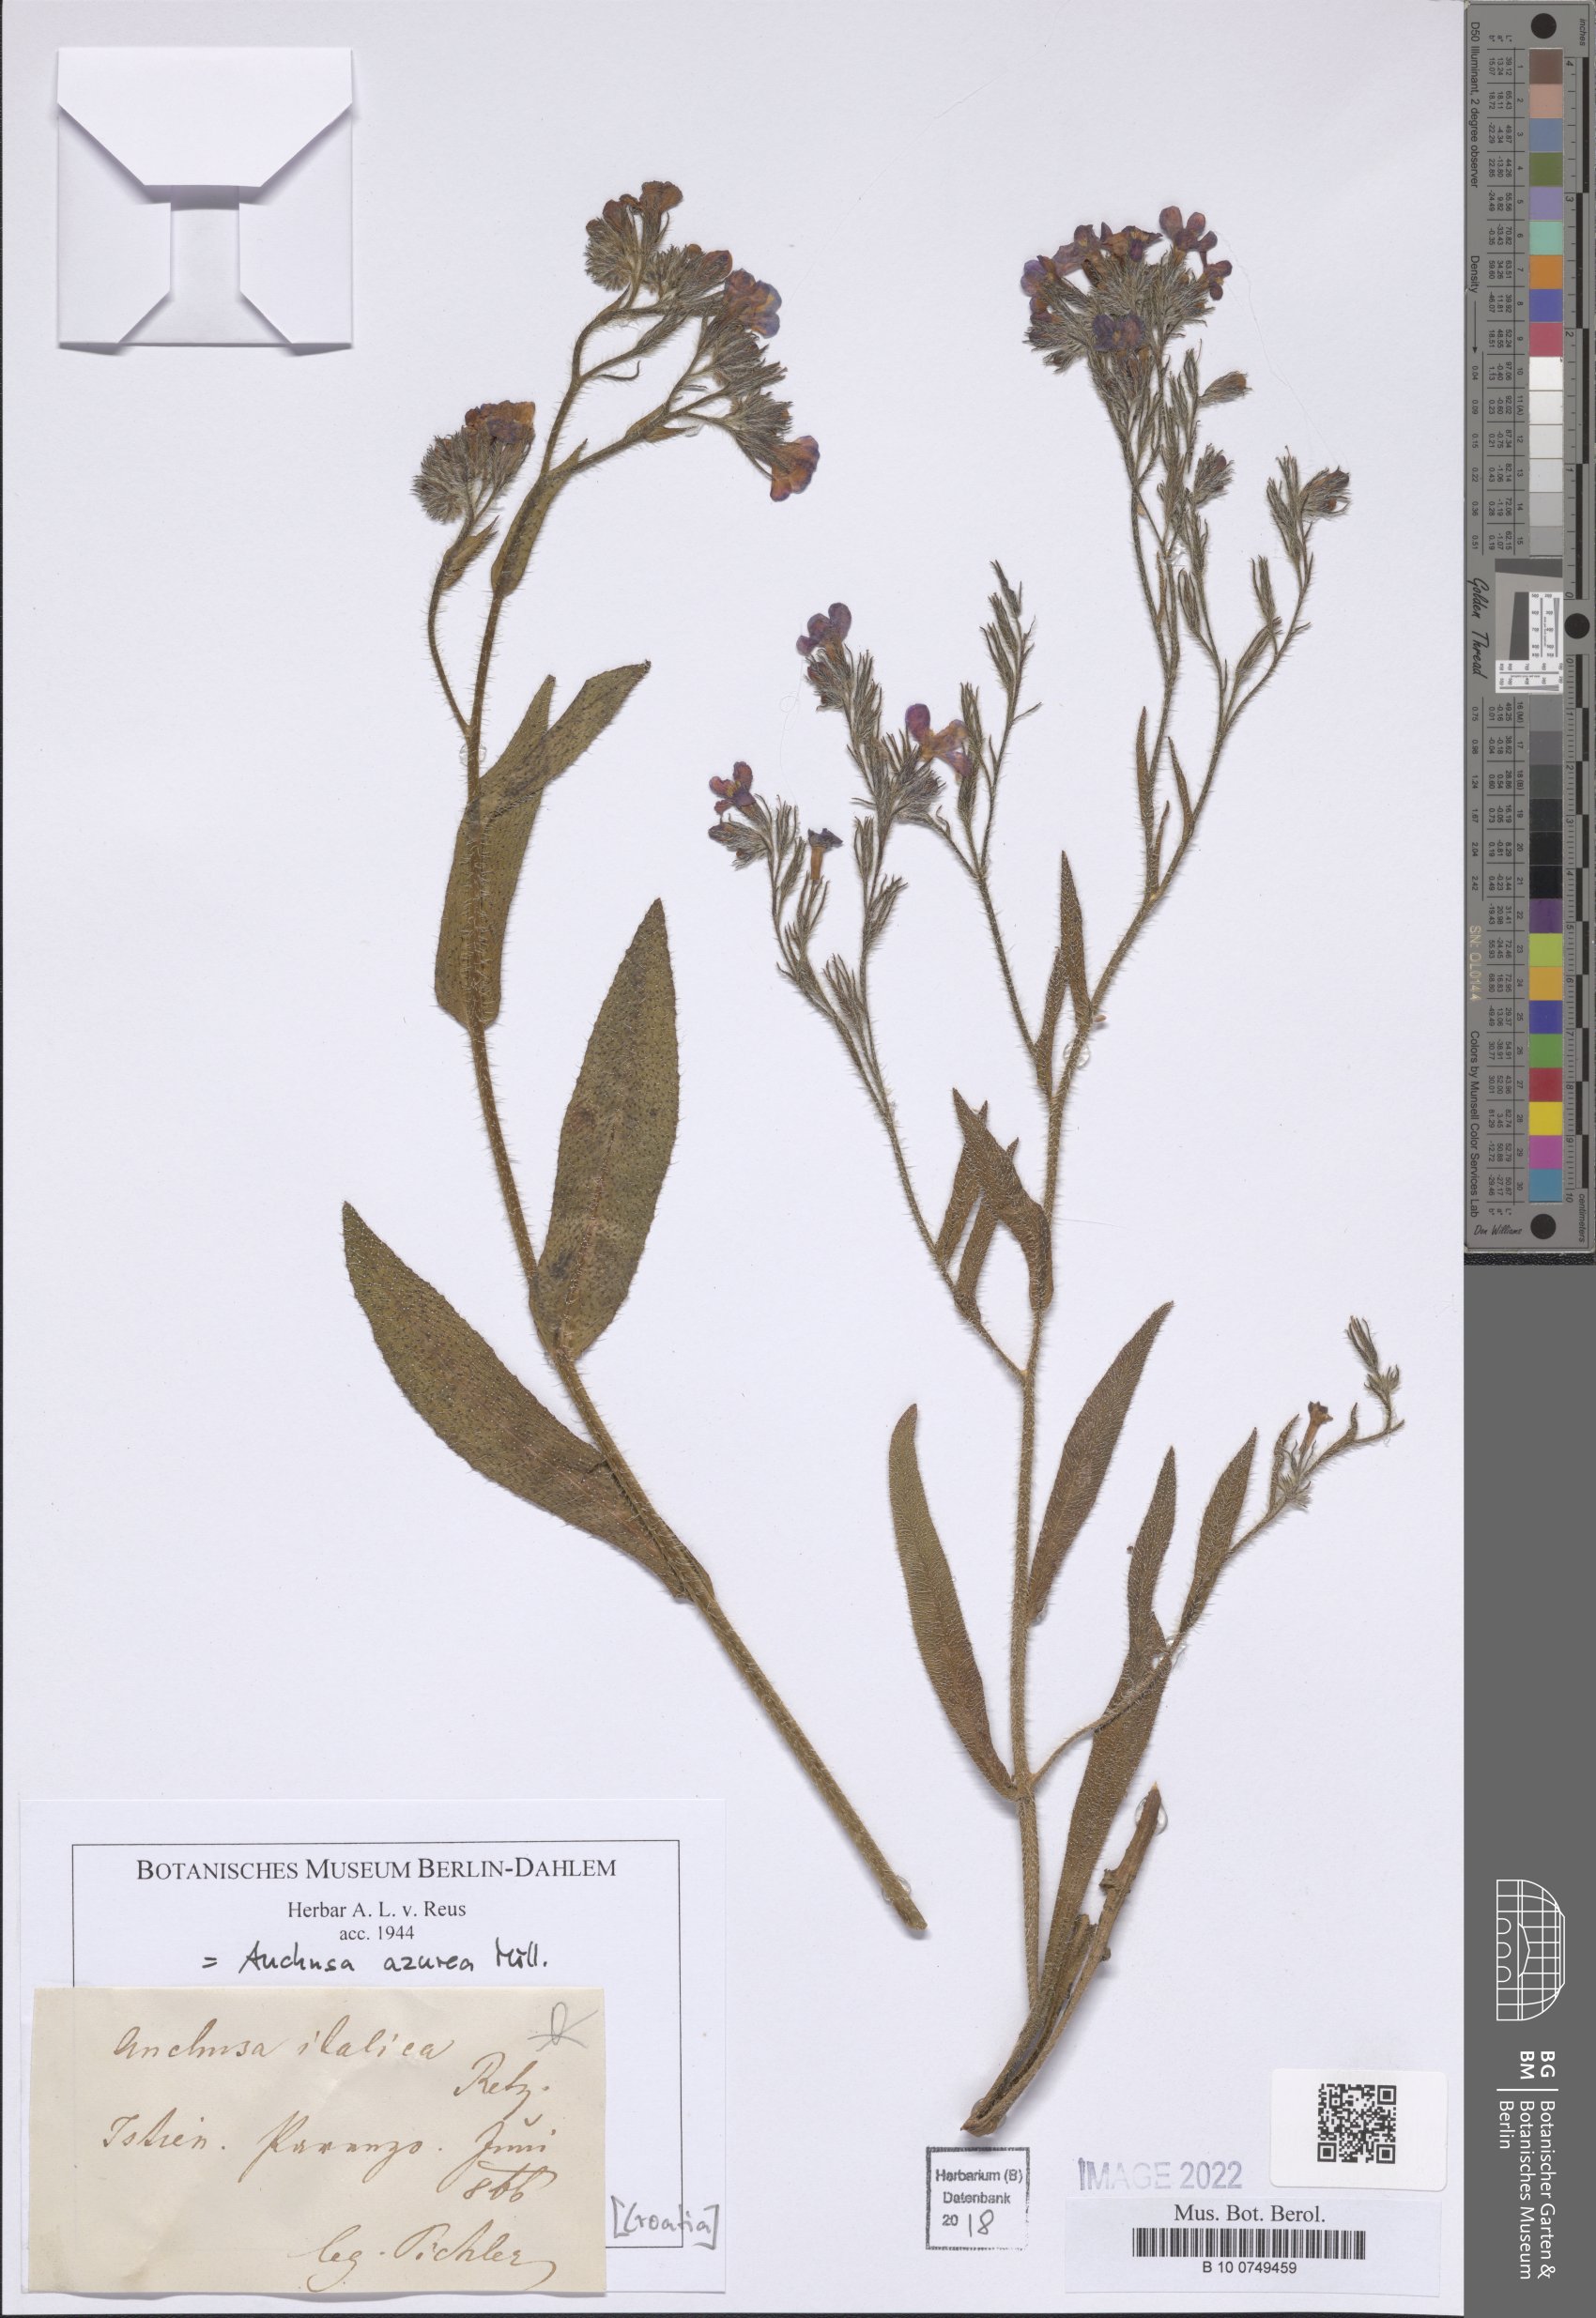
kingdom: Plantae
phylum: Tracheophyta
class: Magnoliopsida
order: Boraginales
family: Boraginaceae
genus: Anchusa
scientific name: Anchusa azurea
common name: Garden anchusa
